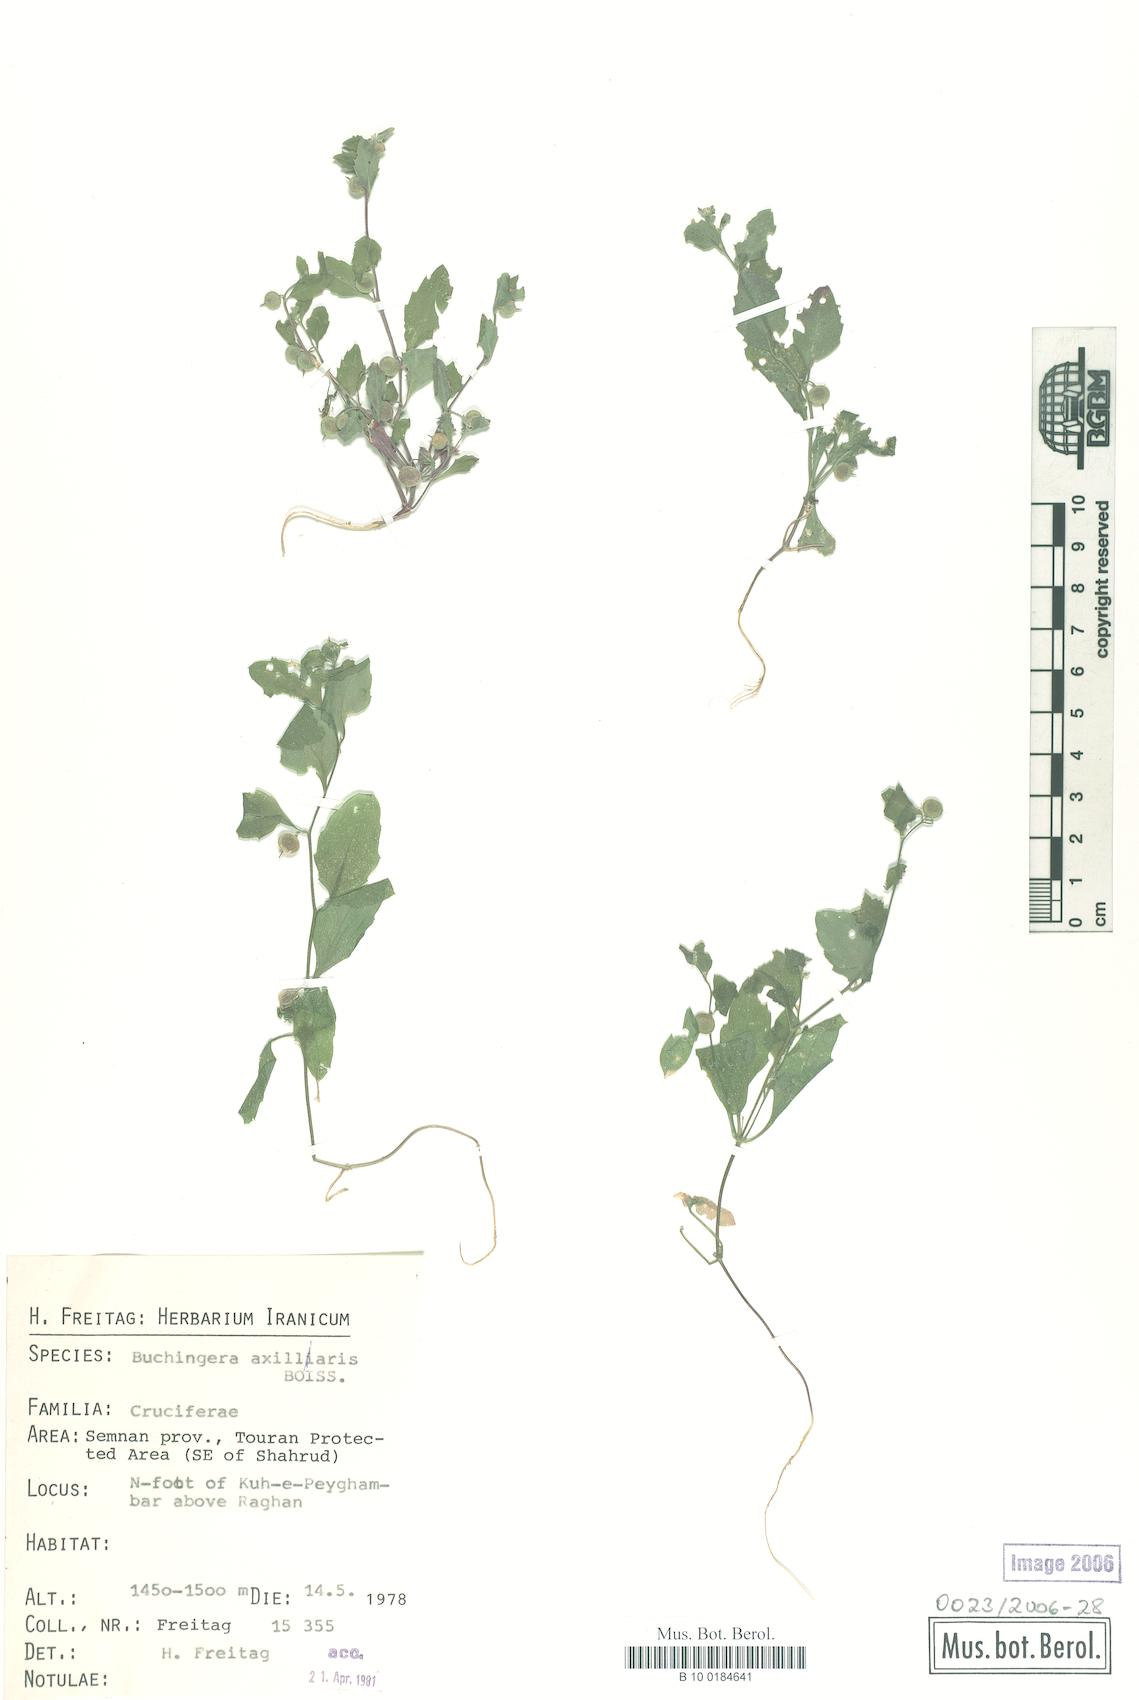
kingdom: Plantae
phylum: Tracheophyta
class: Magnoliopsida
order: Brassicales
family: Brassicaceae
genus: Asperuginoides
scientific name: Asperuginoides axillaris
